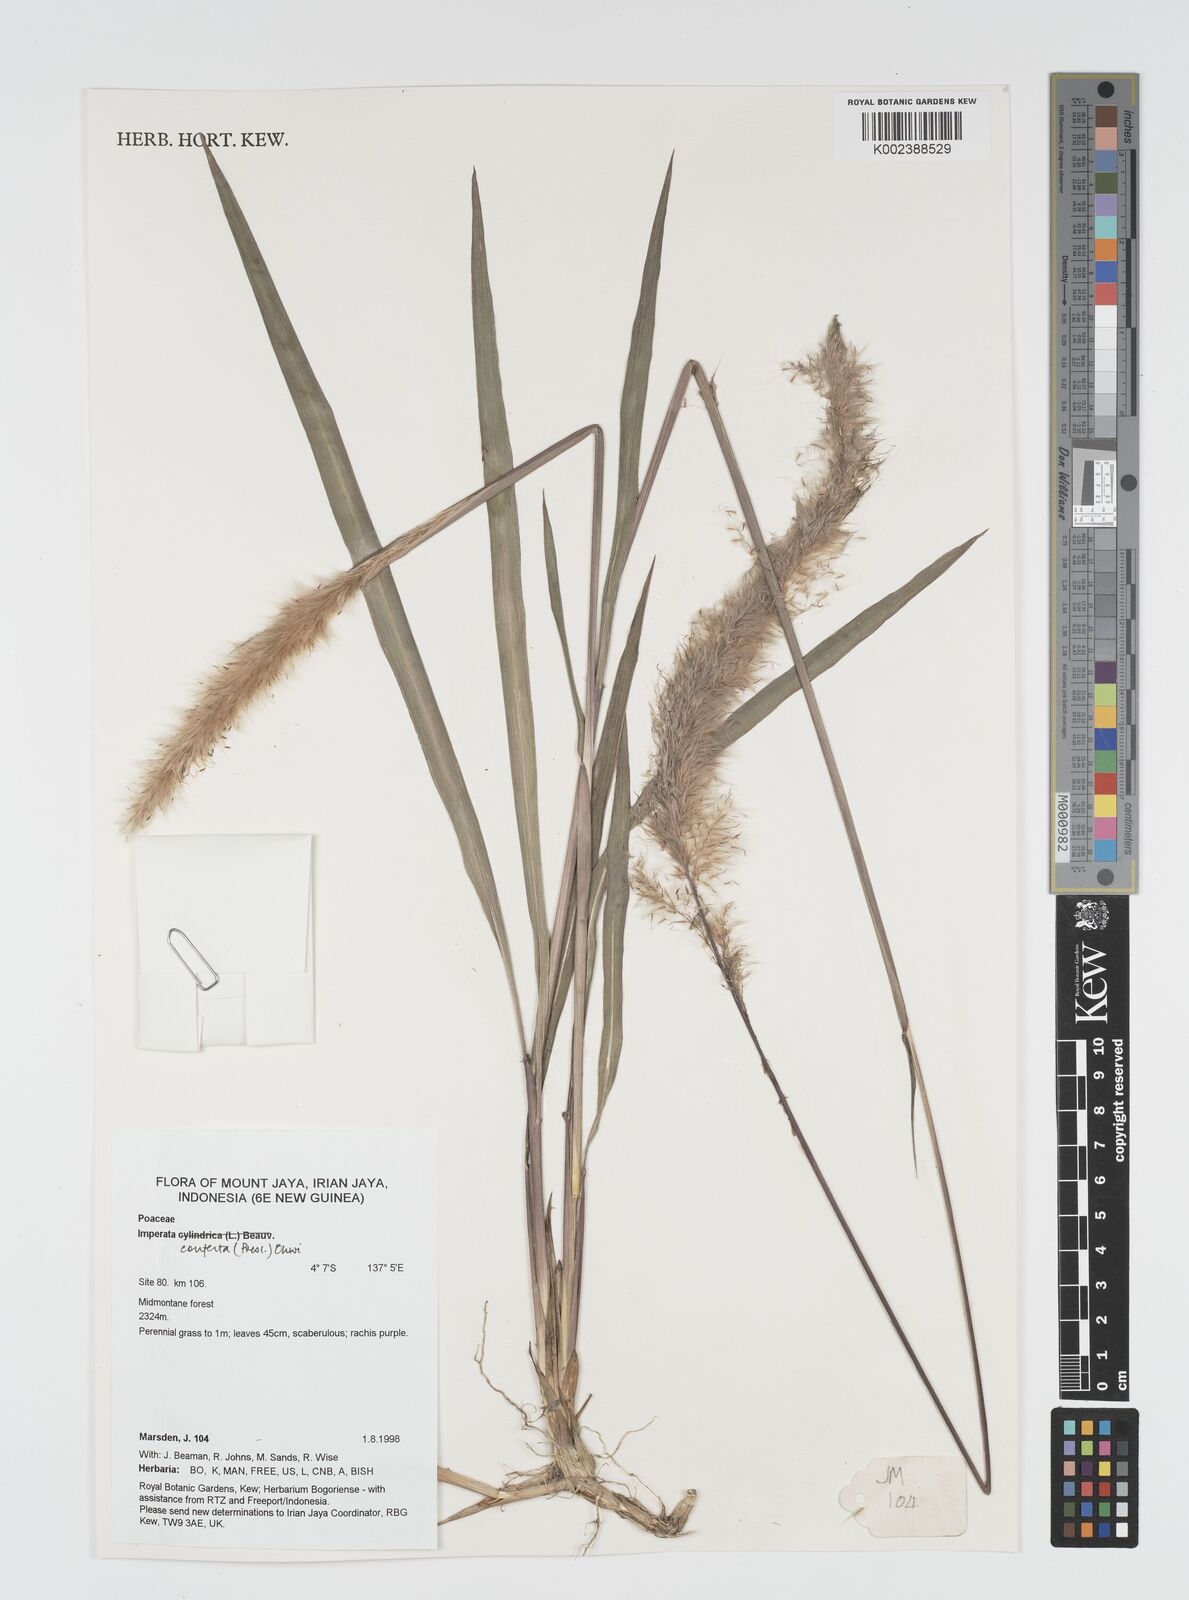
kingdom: Plantae
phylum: Tracheophyta
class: Liliopsida
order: Poales
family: Poaceae
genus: Imperata
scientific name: Imperata conferta
